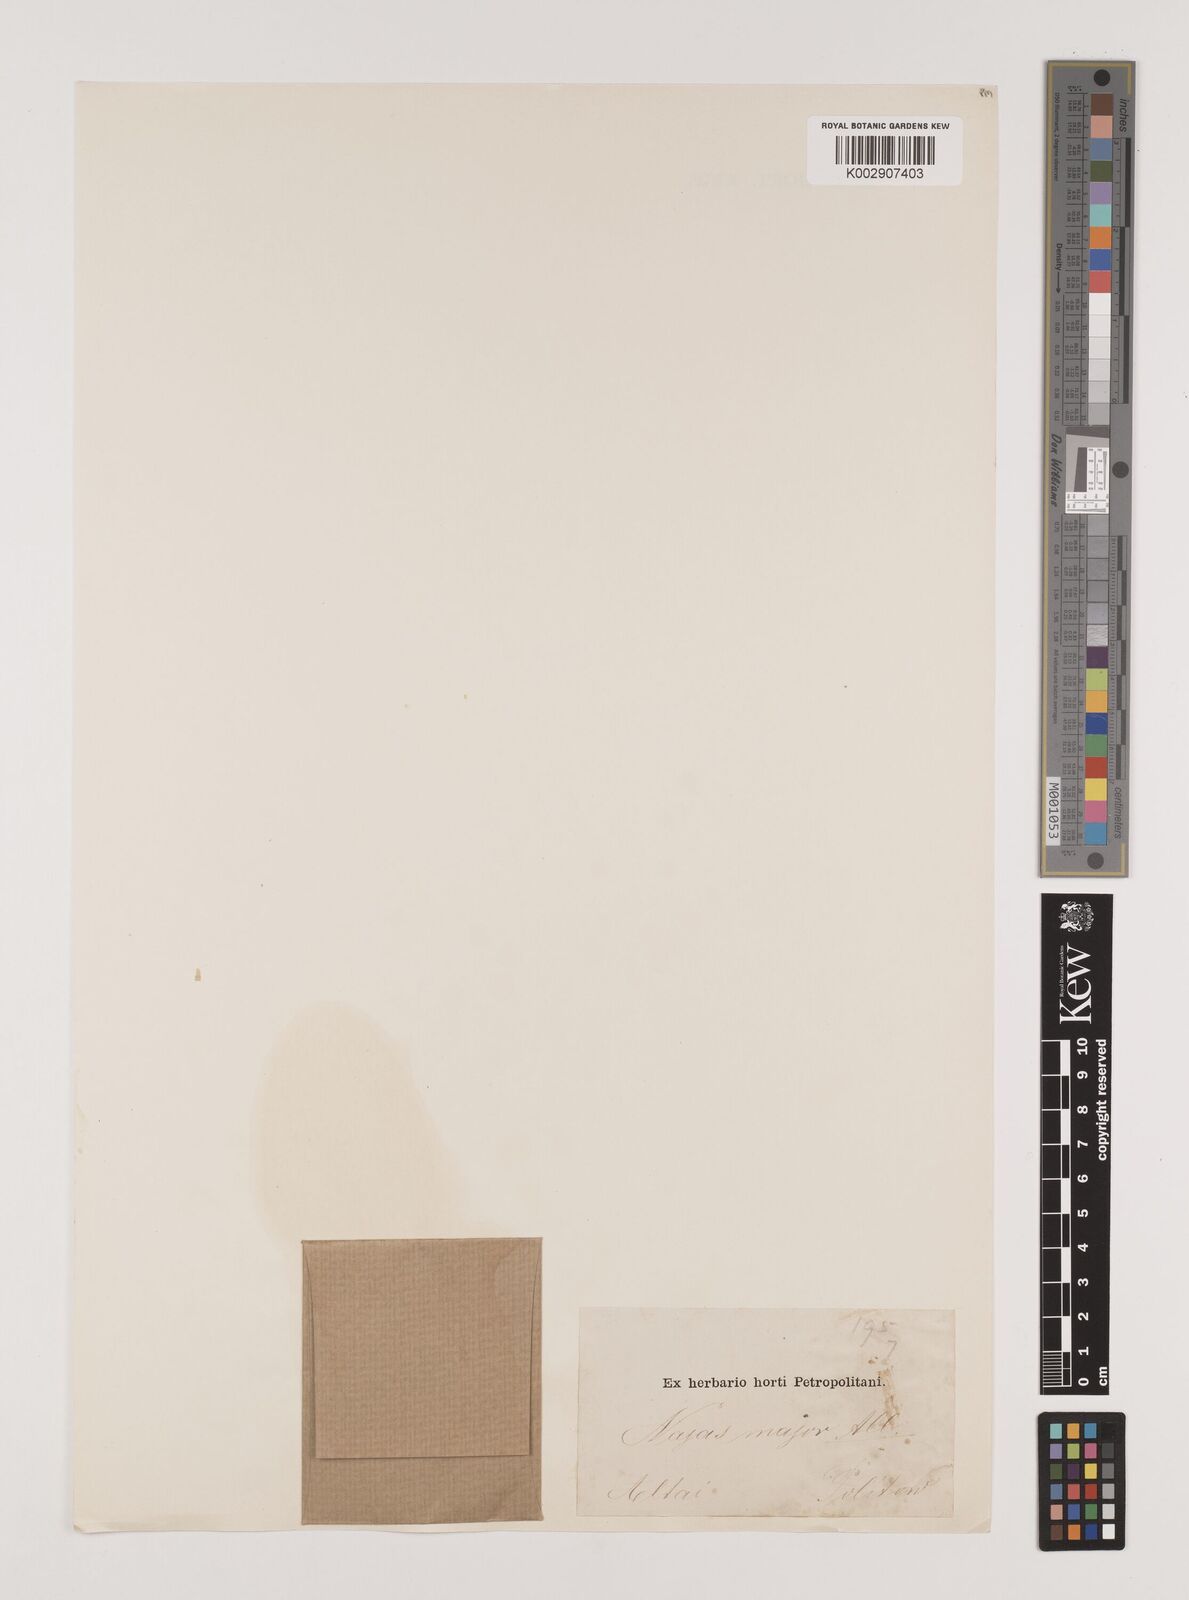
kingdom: Plantae
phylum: Tracheophyta
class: Liliopsida
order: Alismatales
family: Hydrocharitaceae
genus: Najas
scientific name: Najas marina
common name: Holly-leaved naiad
